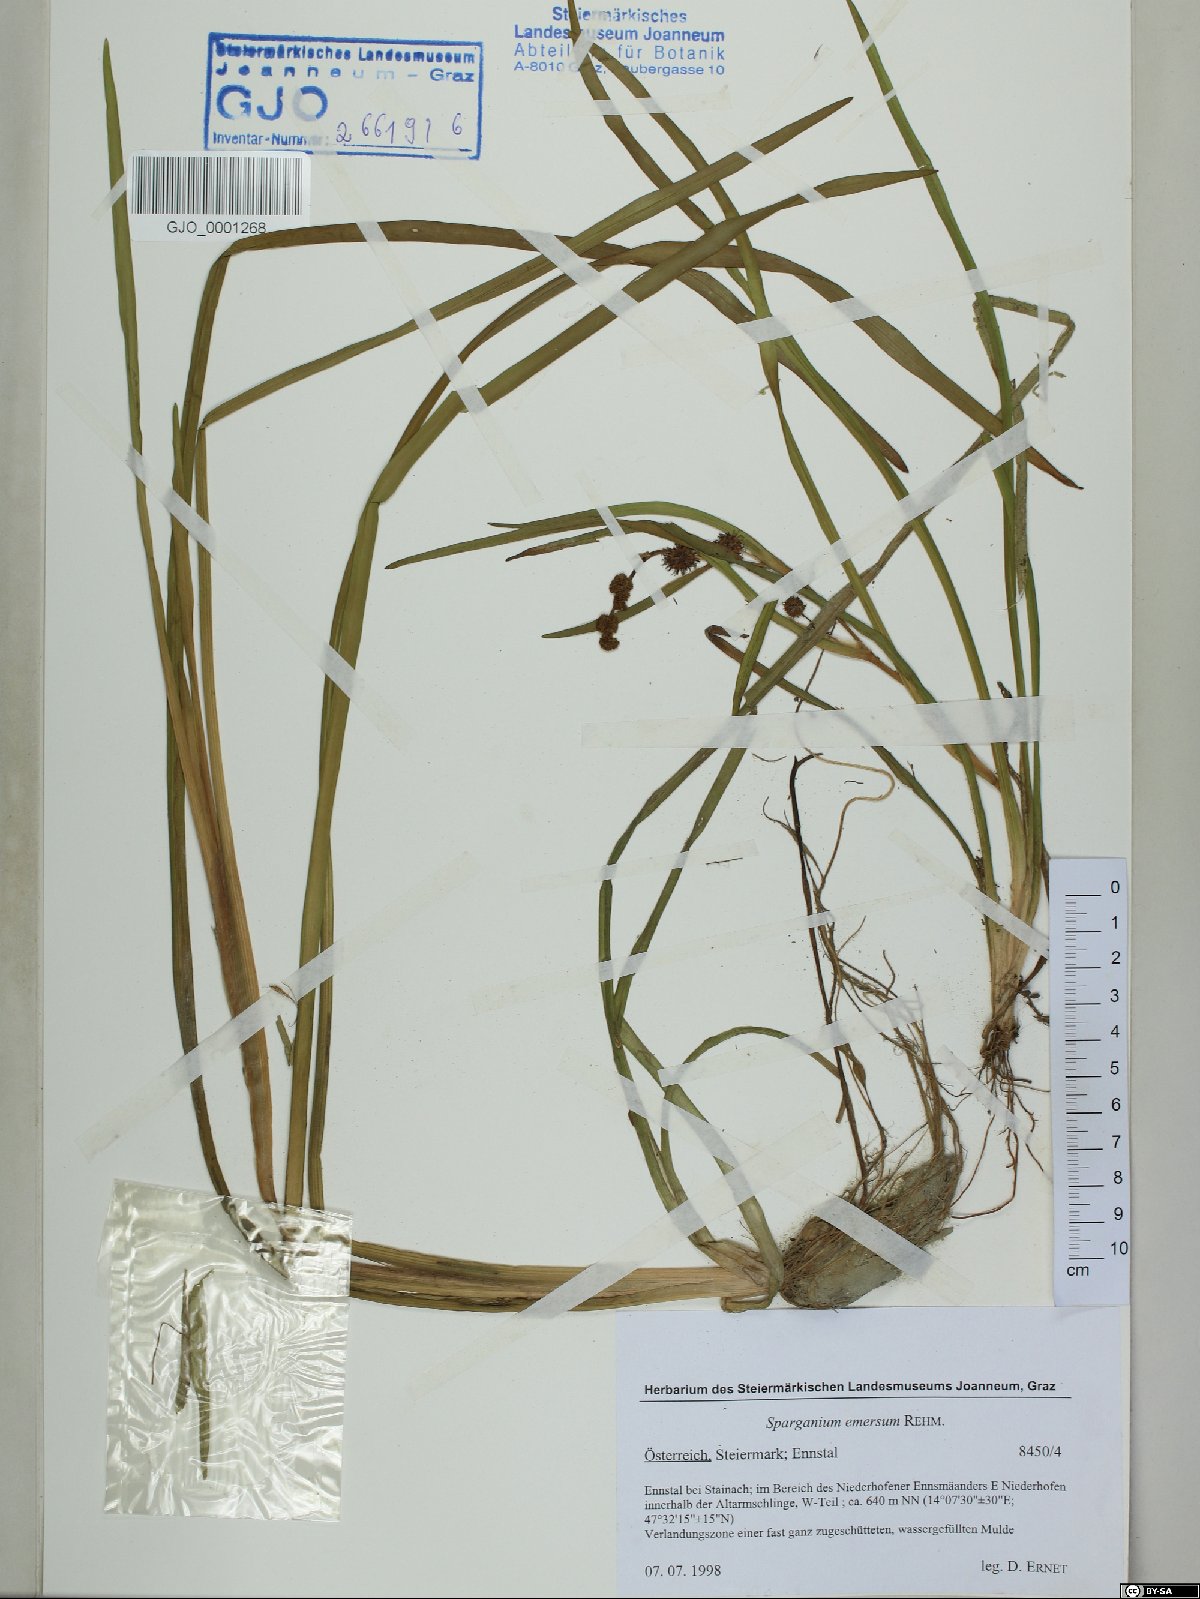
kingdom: Plantae
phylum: Tracheophyta
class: Liliopsida
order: Poales
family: Typhaceae
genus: Sparganium
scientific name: Sparganium emersum
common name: Unbranched bur-reed
